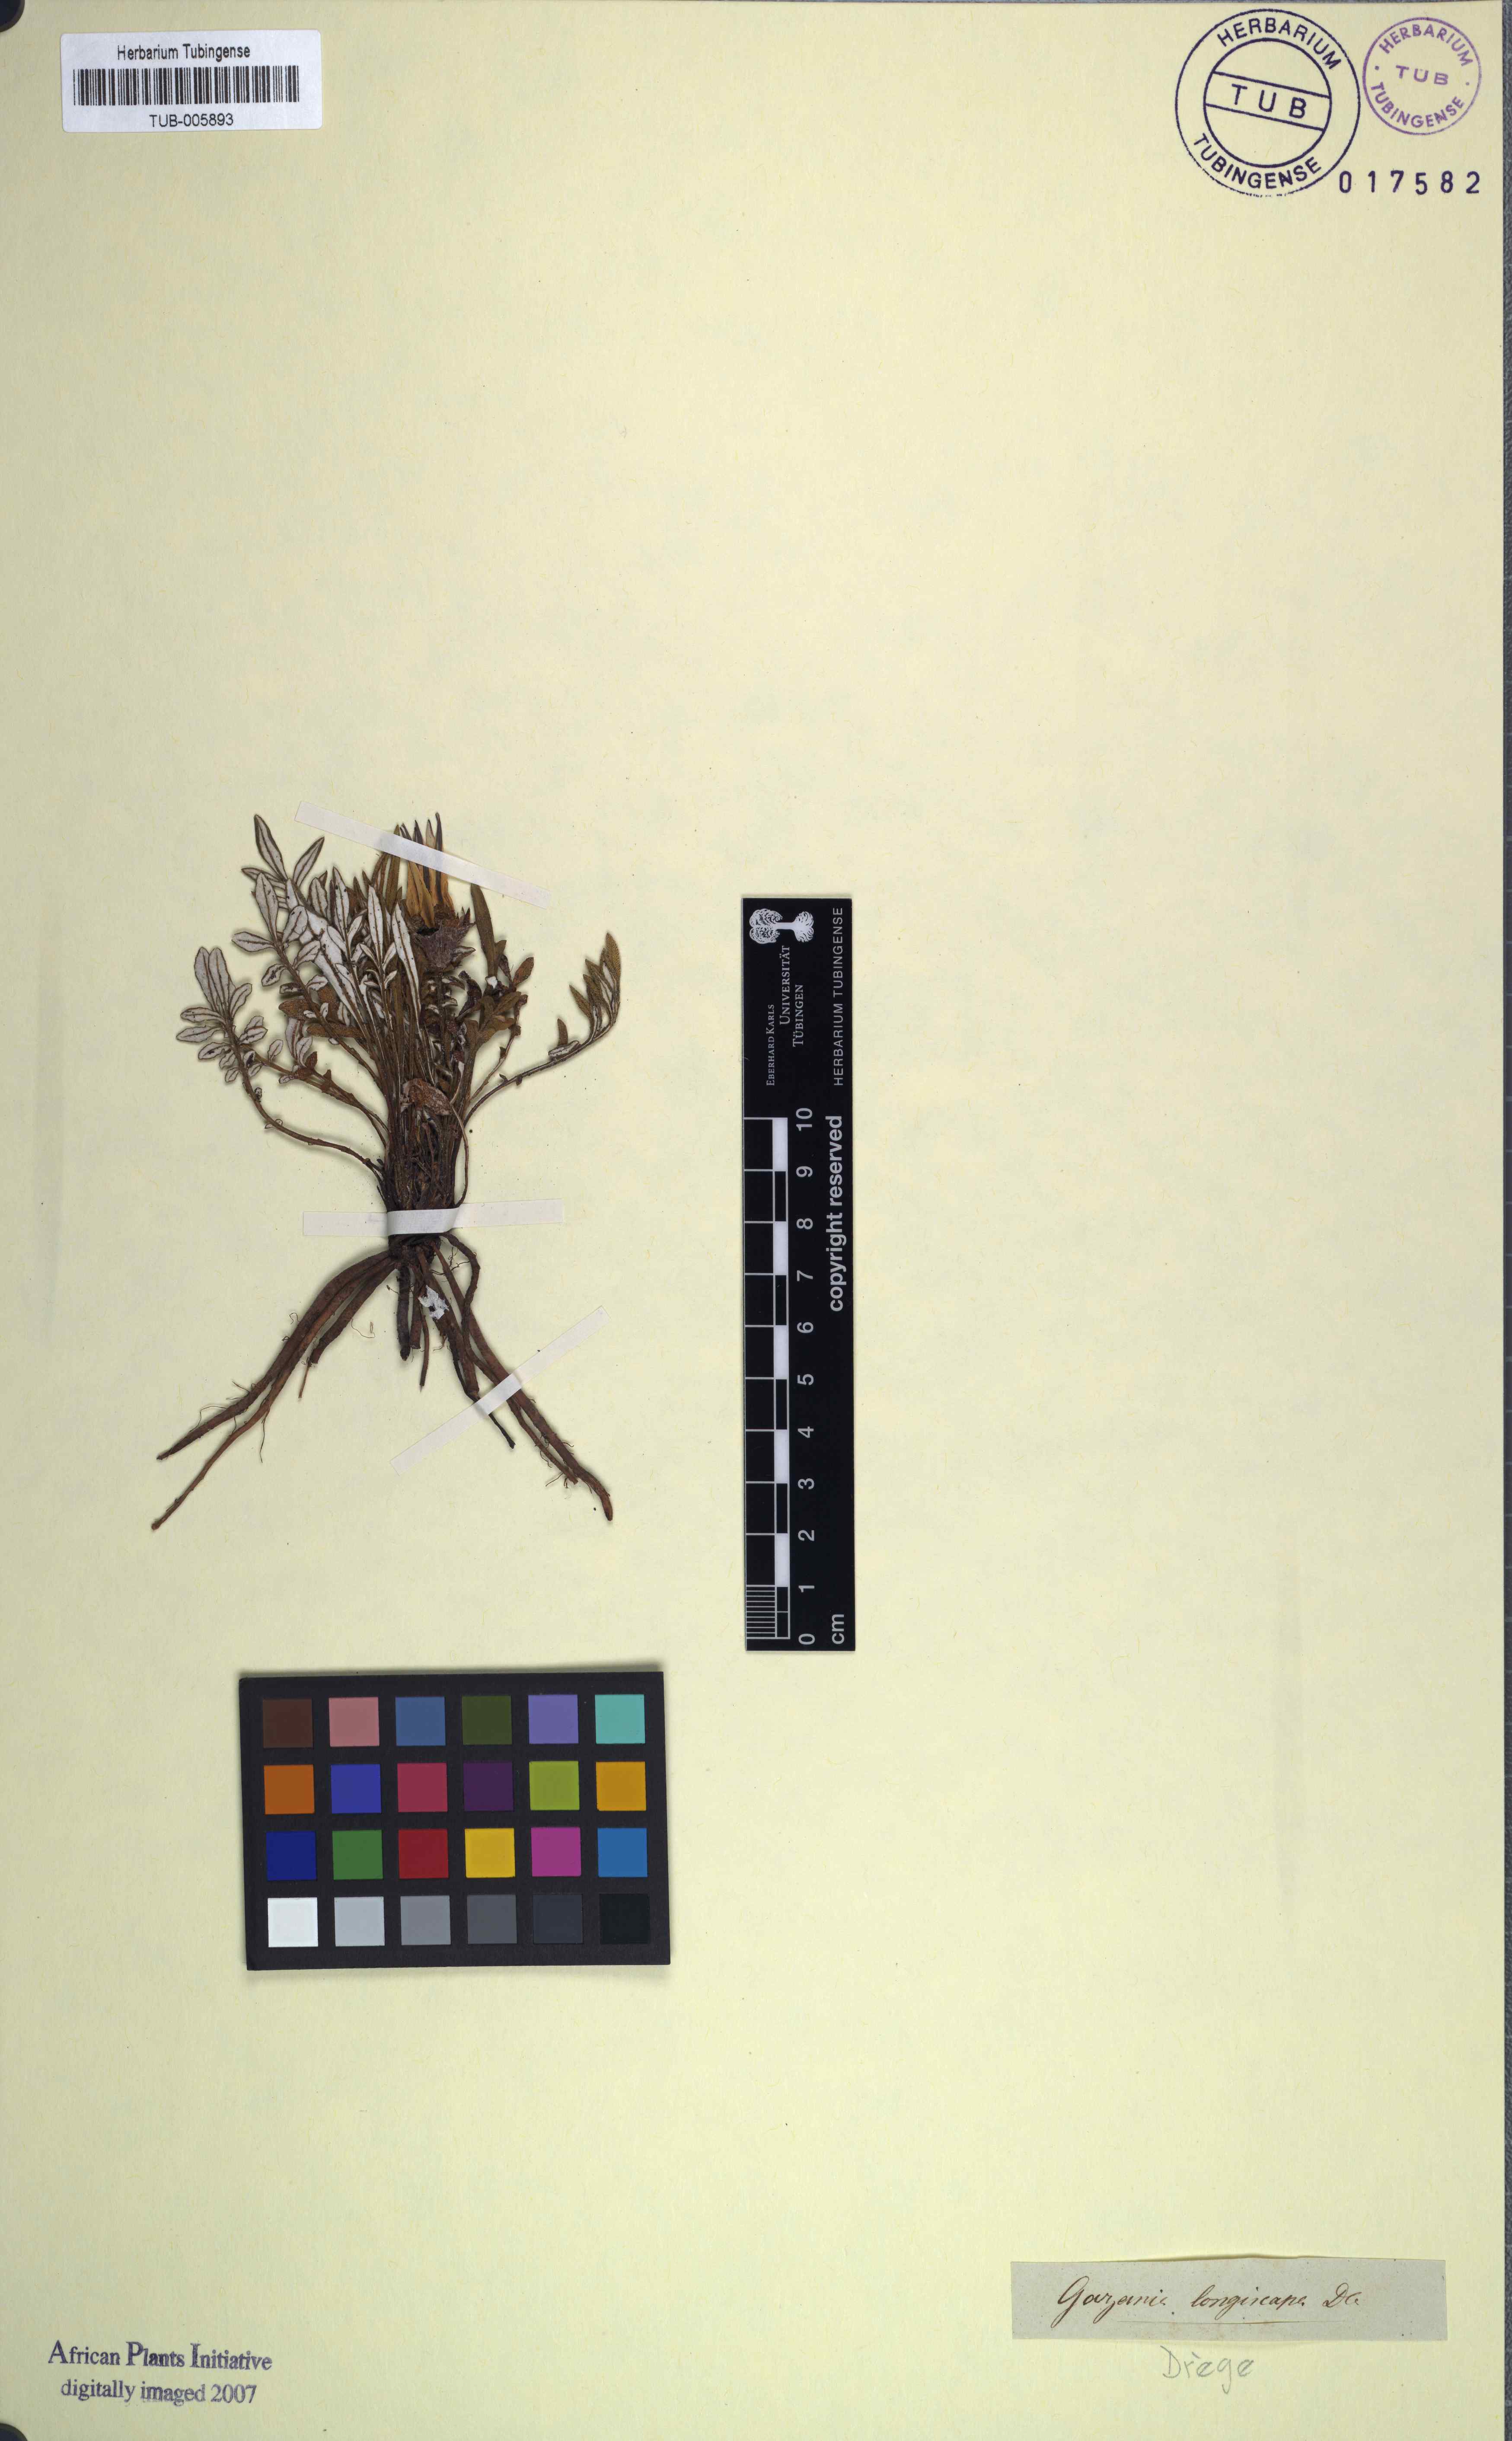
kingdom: Plantae
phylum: Tracheophyta
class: Magnoliopsida
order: Asterales
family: Asteraceae
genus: Gazania
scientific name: Gazania linearis
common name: Treasureflower
